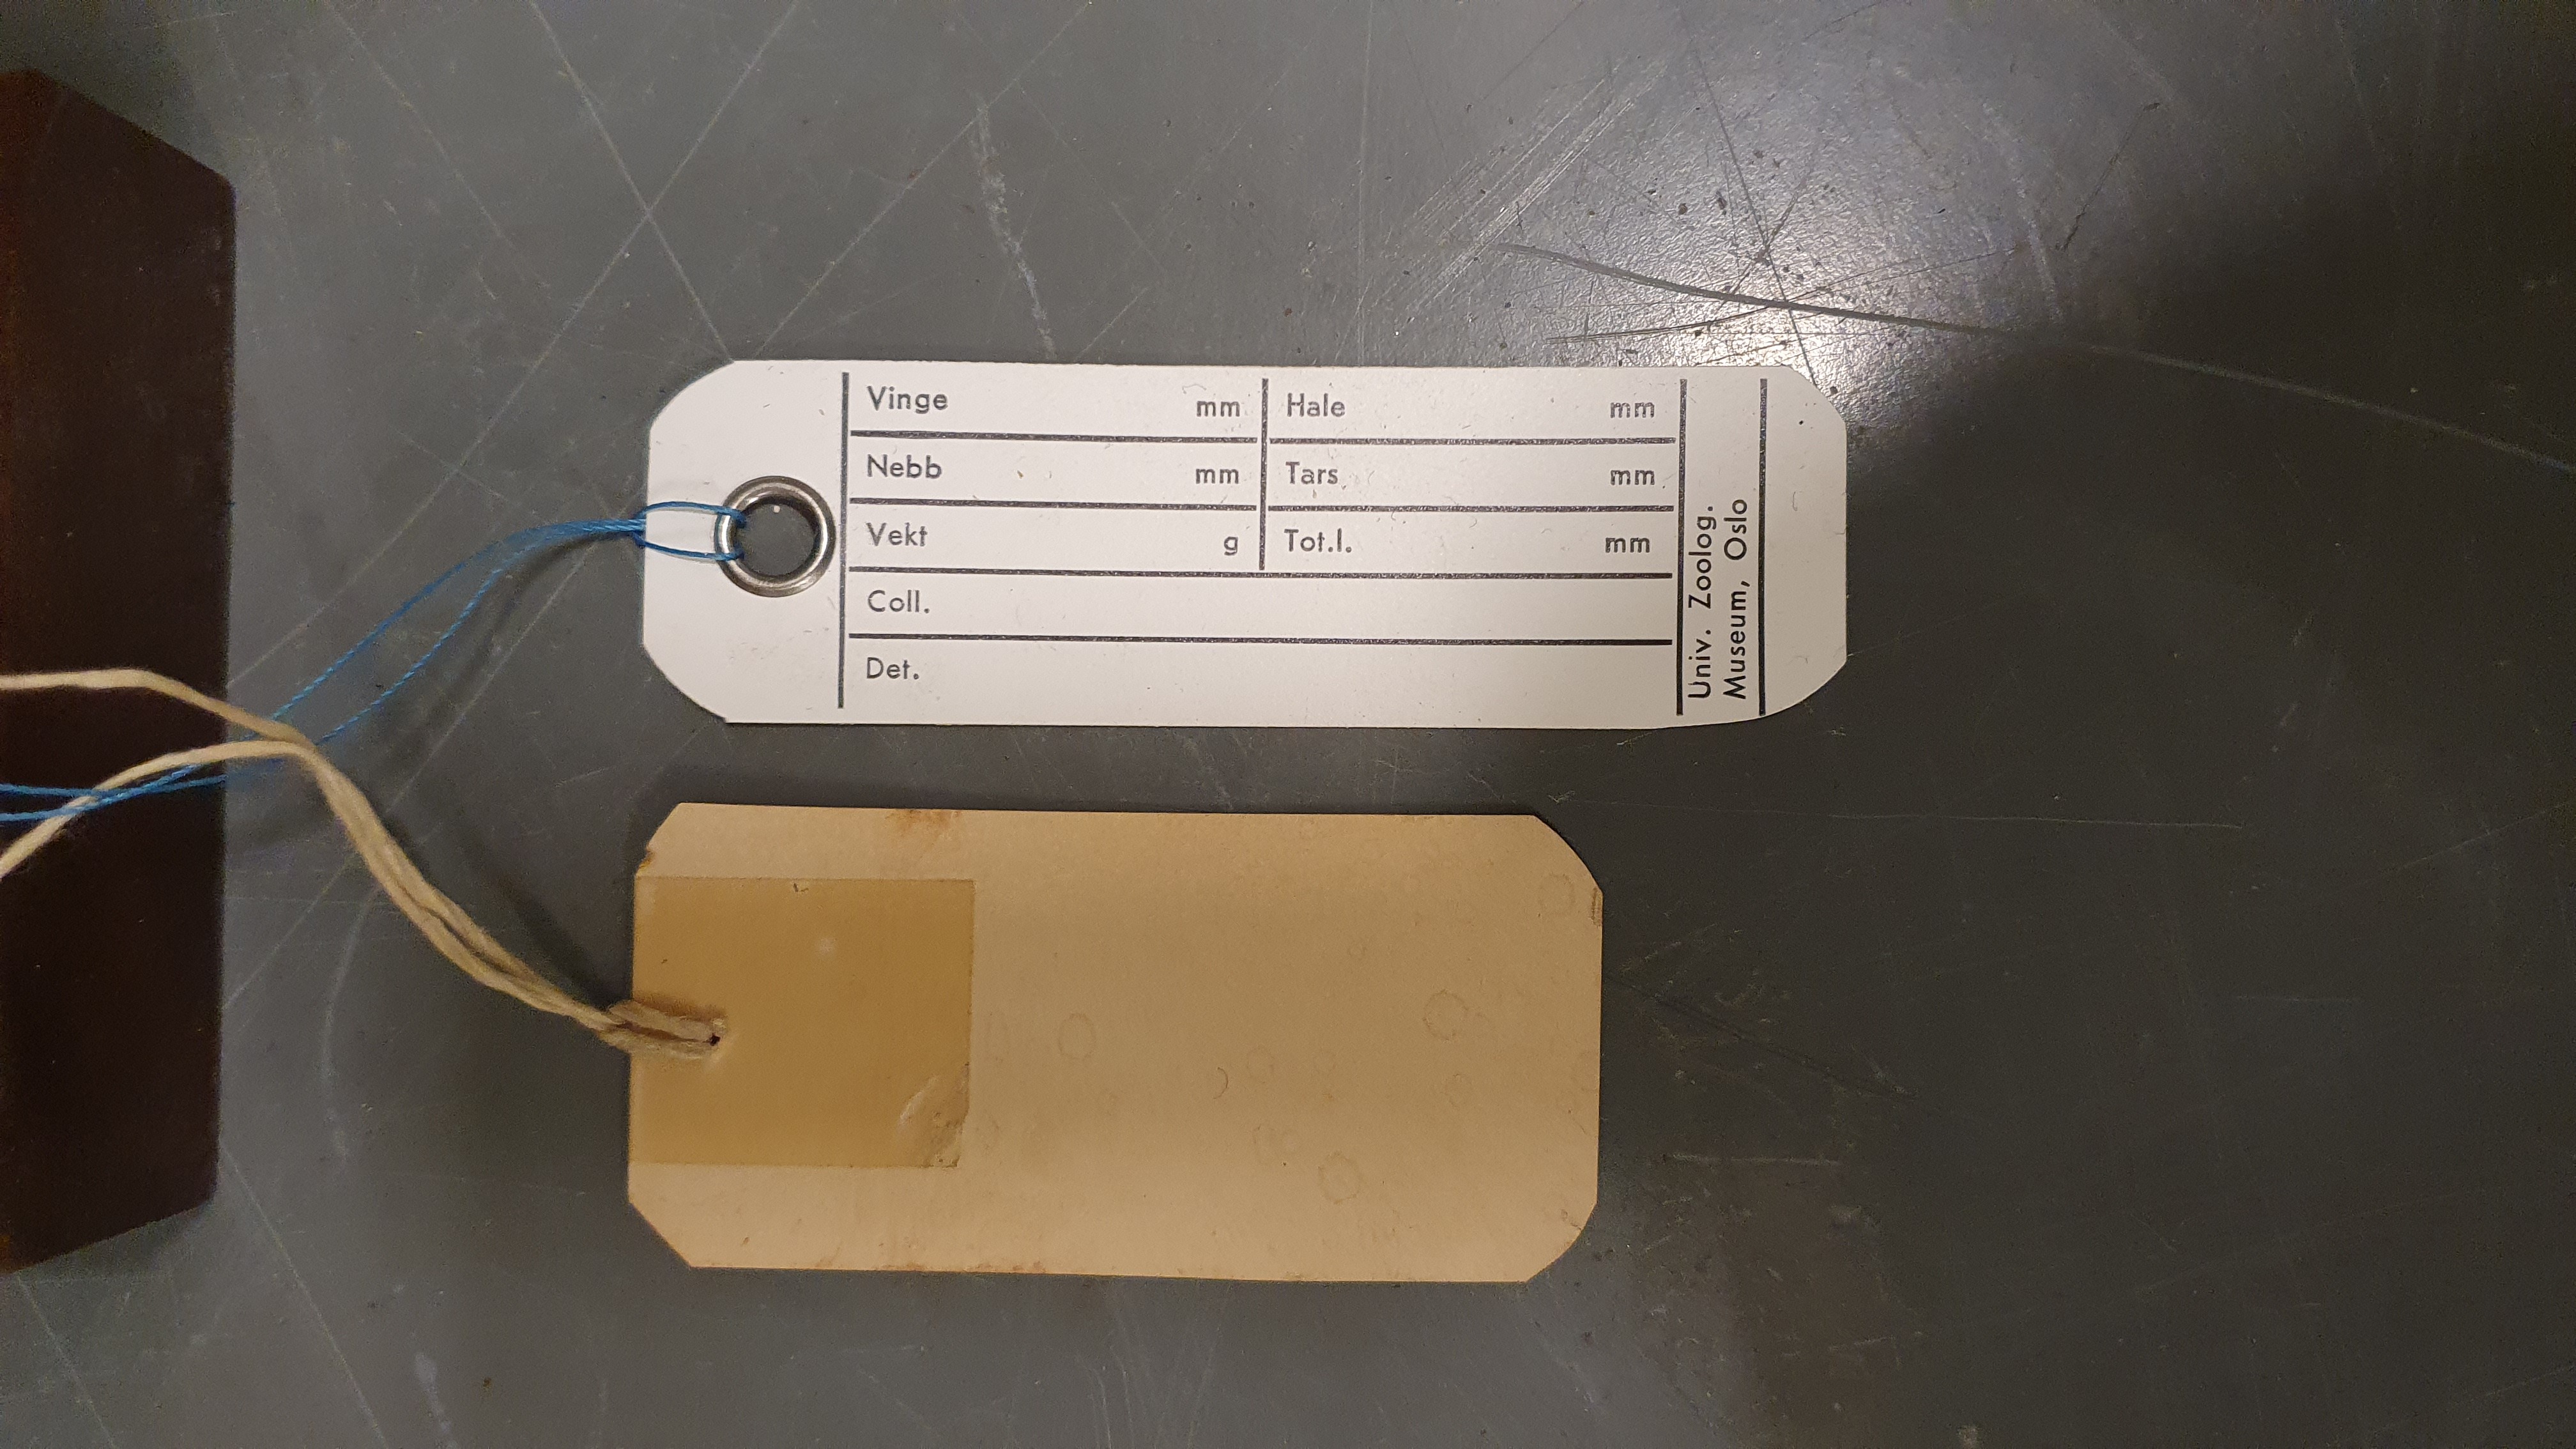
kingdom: Animalia
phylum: Chordata
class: Aves
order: Charadriiformes
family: Laridae
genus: Sternula
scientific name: Sternula albifrons
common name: Little tern
